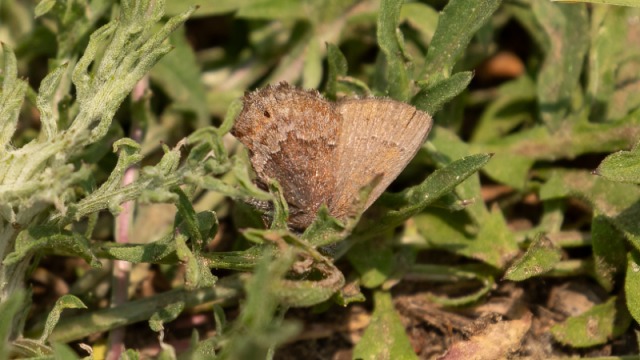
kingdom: Animalia
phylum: Arthropoda
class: Insecta
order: Lepidoptera
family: Lycaenidae
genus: Thecla
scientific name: Thecla irus
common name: Frosted Elfin
